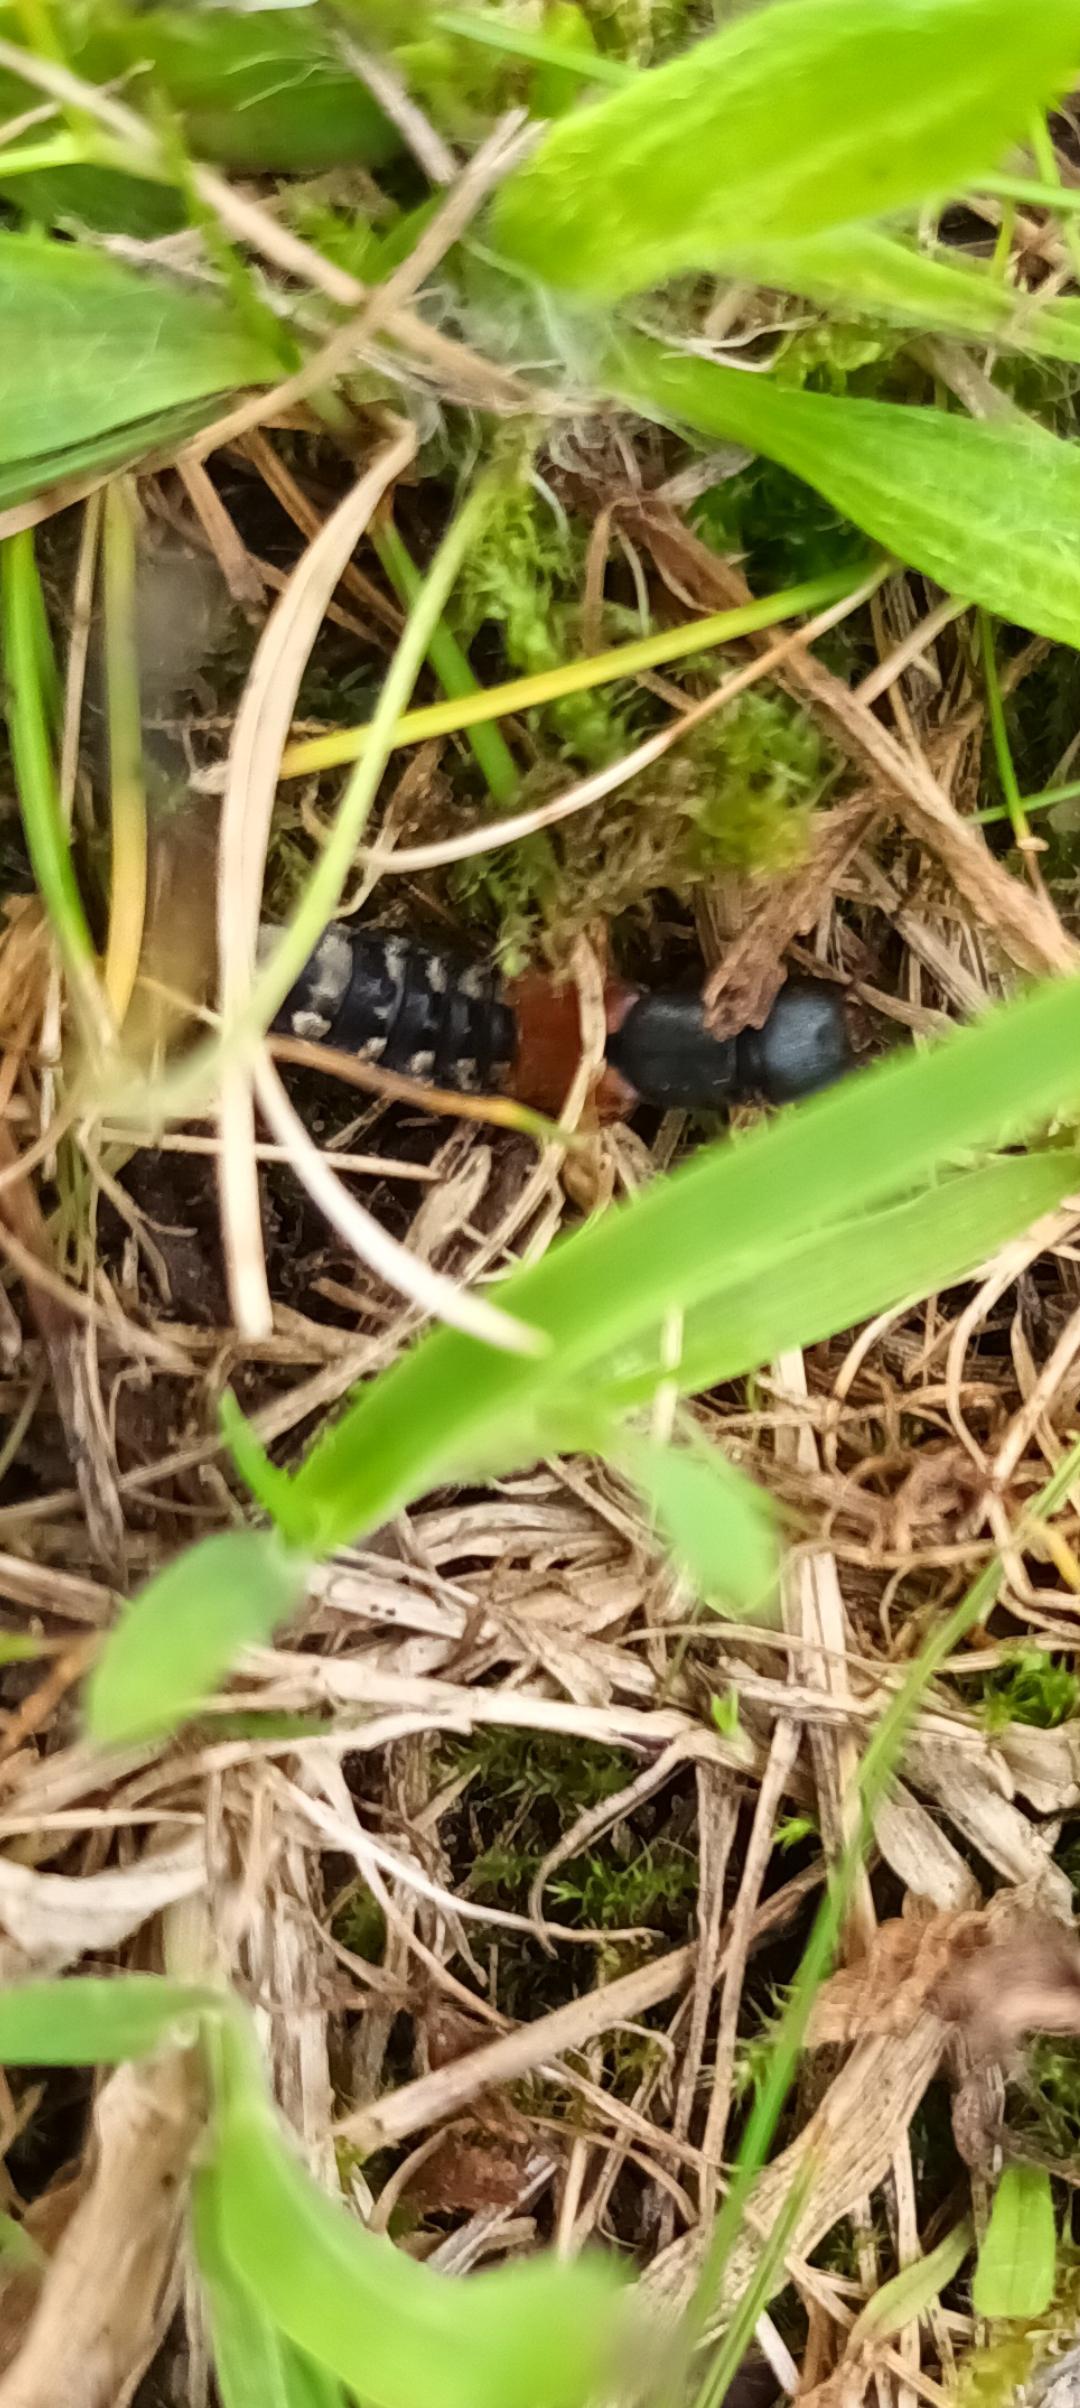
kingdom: Animalia
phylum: Arthropoda
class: Insecta
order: Coleoptera
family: Staphylinidae
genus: Platydracus
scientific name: Platydracus stercorarius
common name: Almindelig guldpletrovbille
